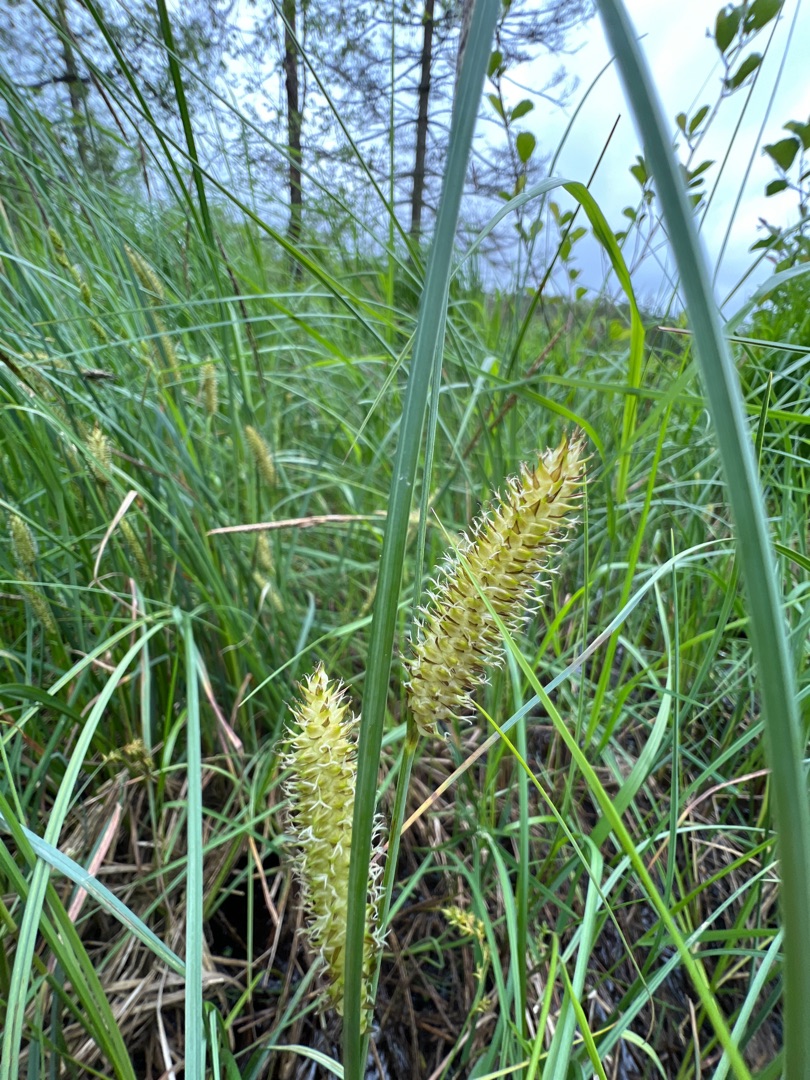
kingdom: Plantae
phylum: Tracheophyta
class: Liliopsida
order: Poales
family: Cyperaceae
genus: Carex
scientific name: Carex rostrata
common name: Næb-star
